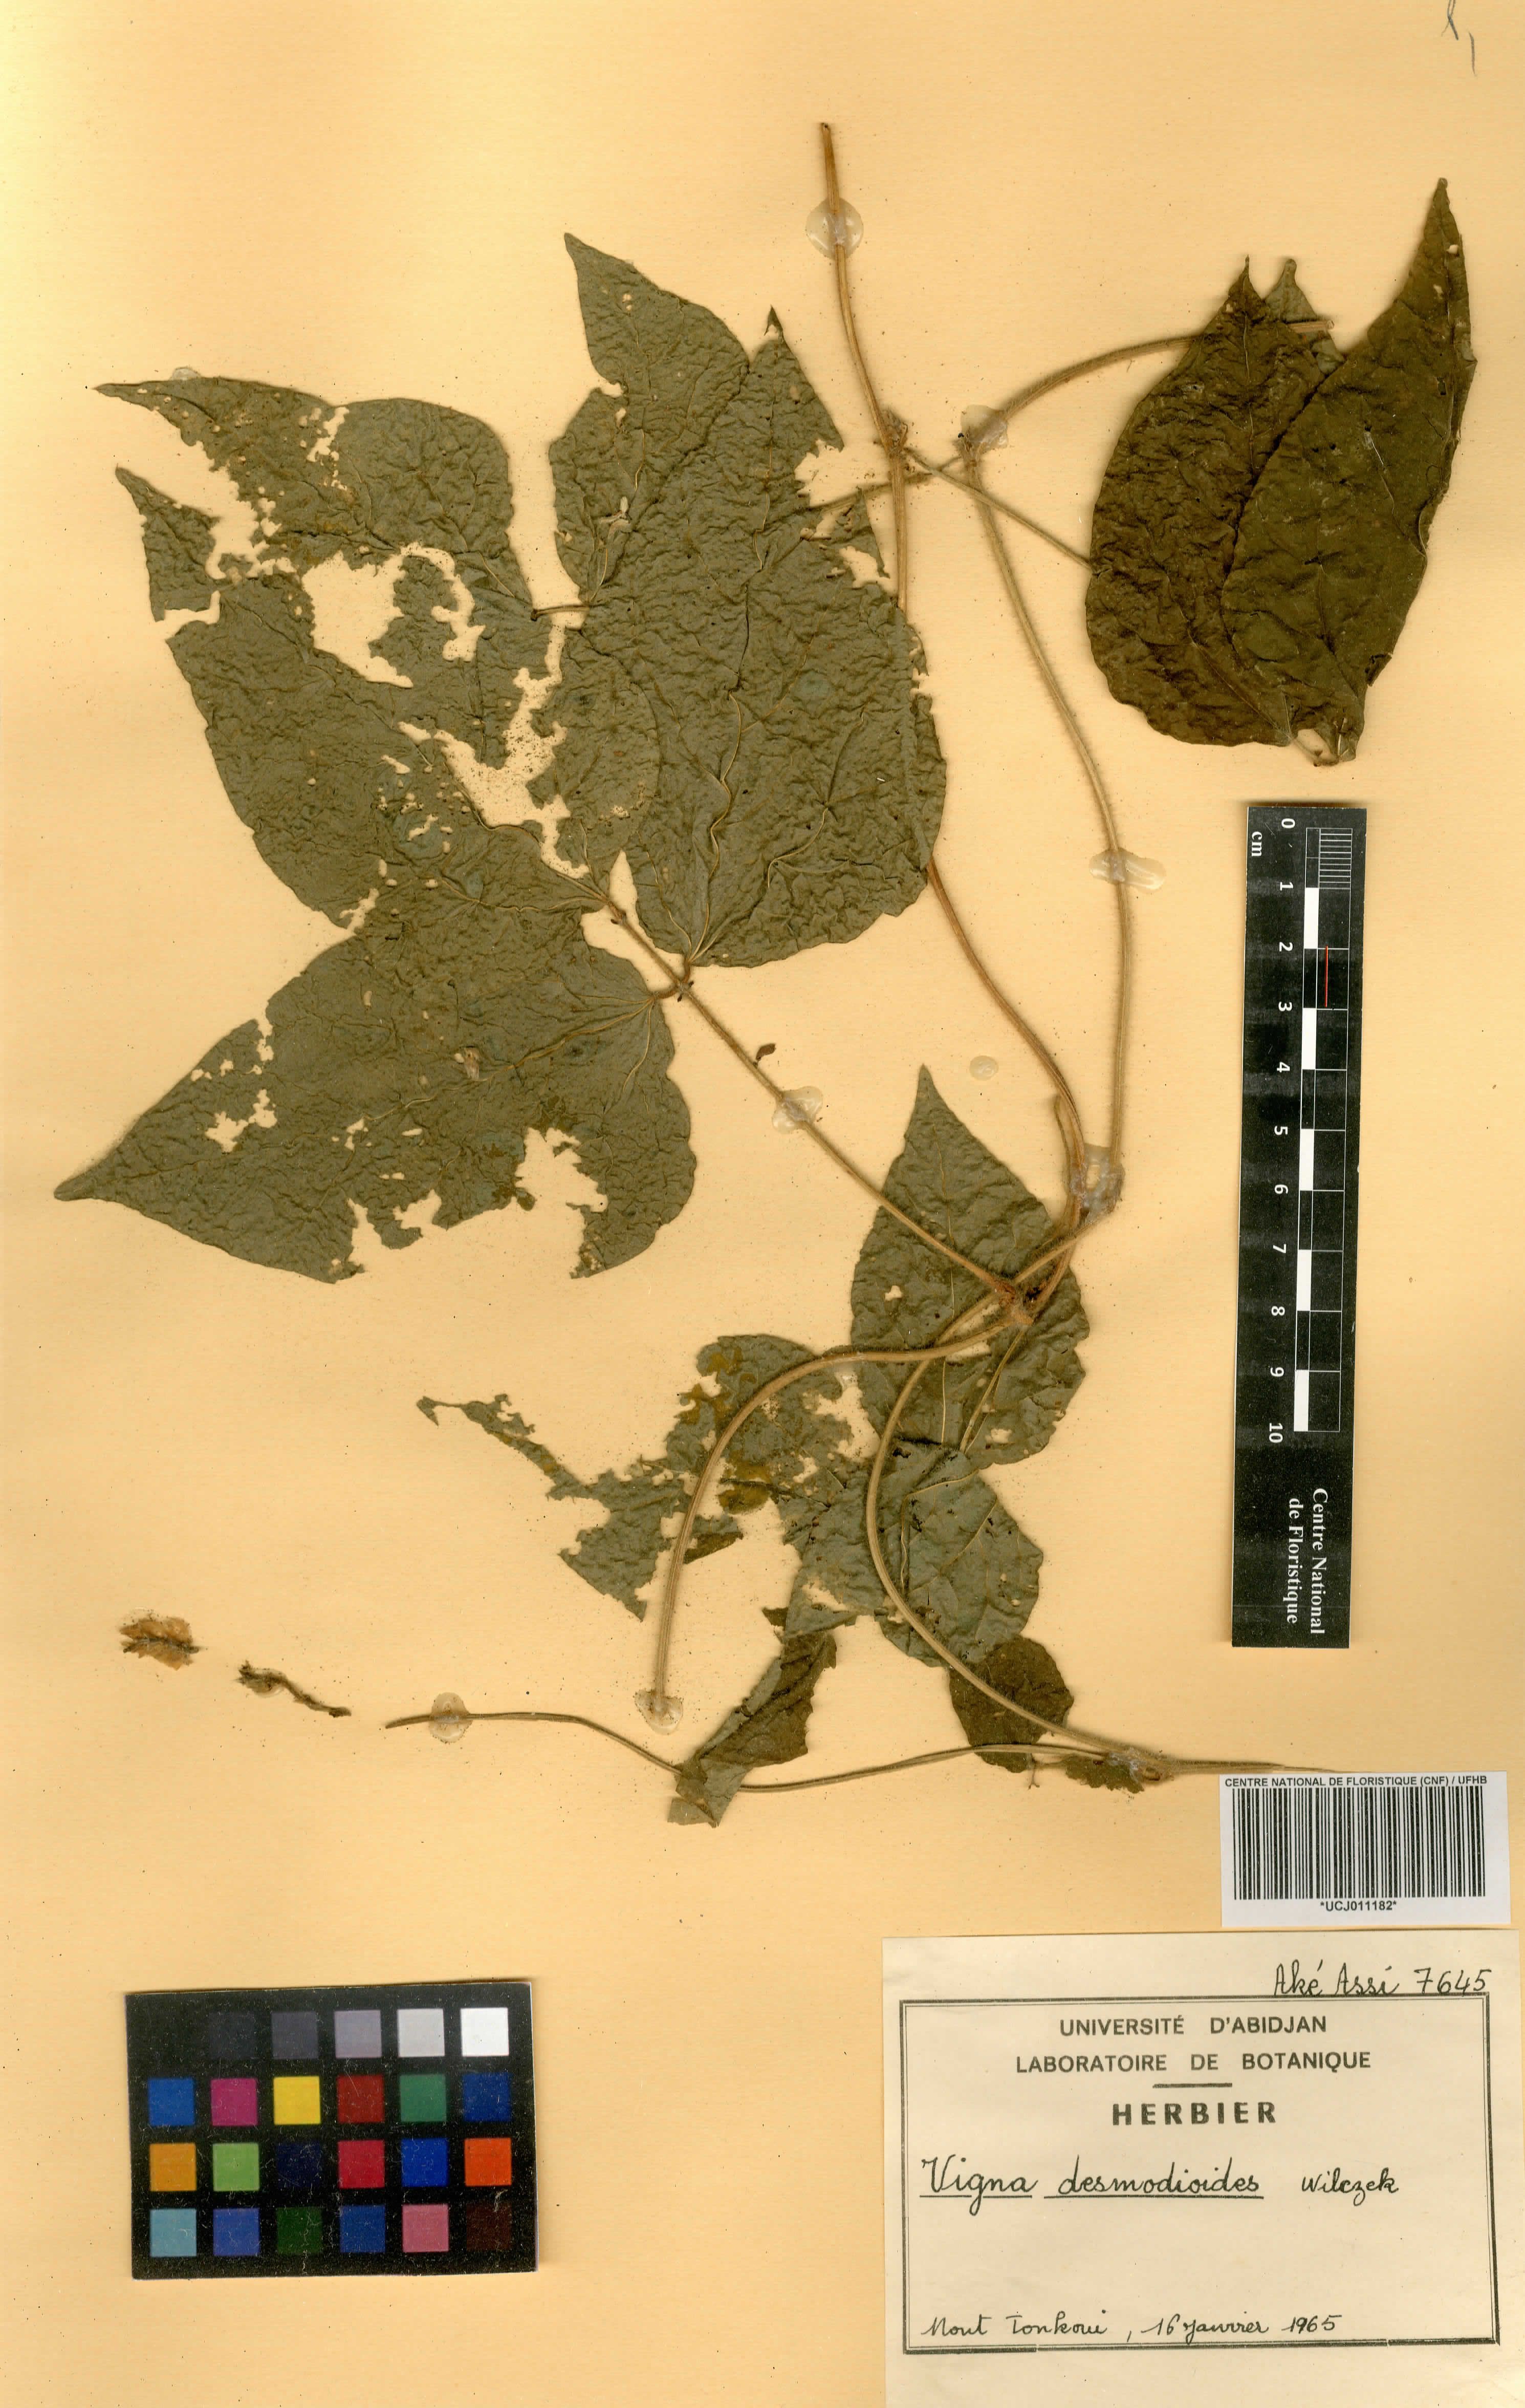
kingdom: Plantae
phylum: Tracheophyta
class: Magnoliopsida
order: Fabales
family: Fabaceae
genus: Vigna
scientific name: Vigna gracilis
